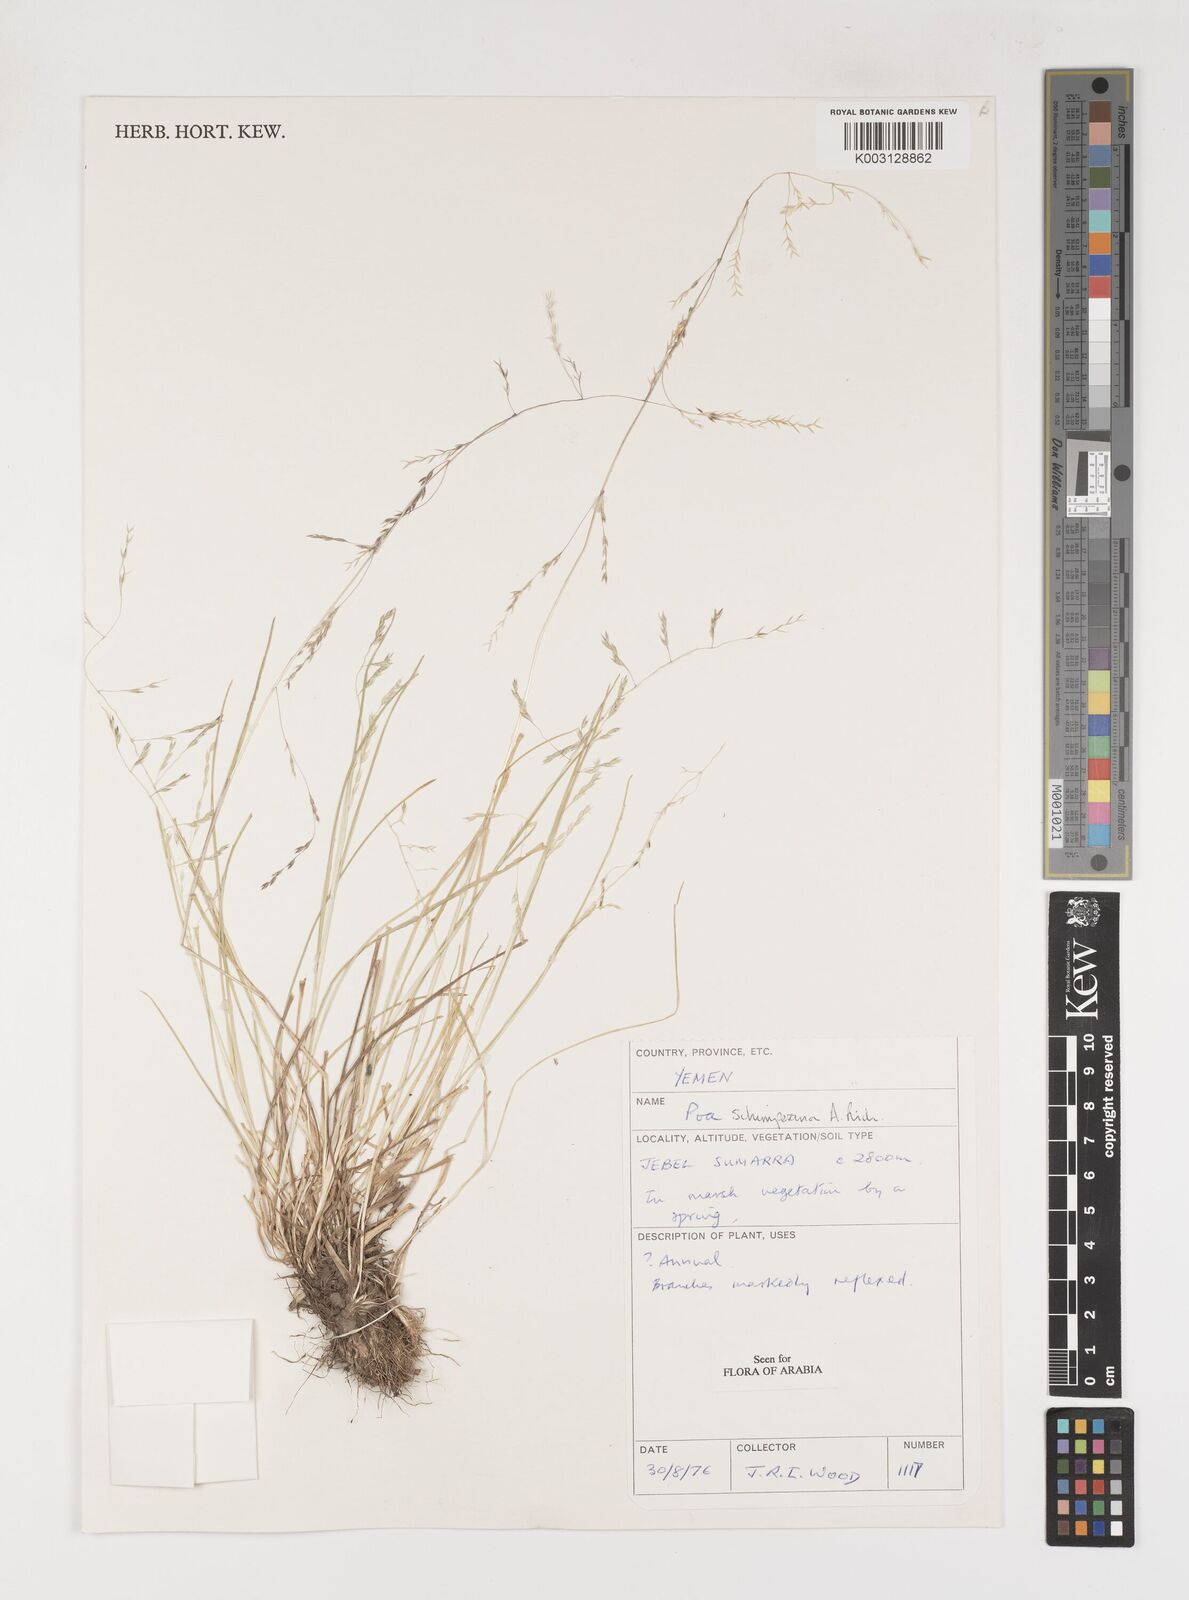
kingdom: Plantae
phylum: Tracheophyta
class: Liliopsida
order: Poales
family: Poaceae
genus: Poa
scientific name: Poa schimperiana
